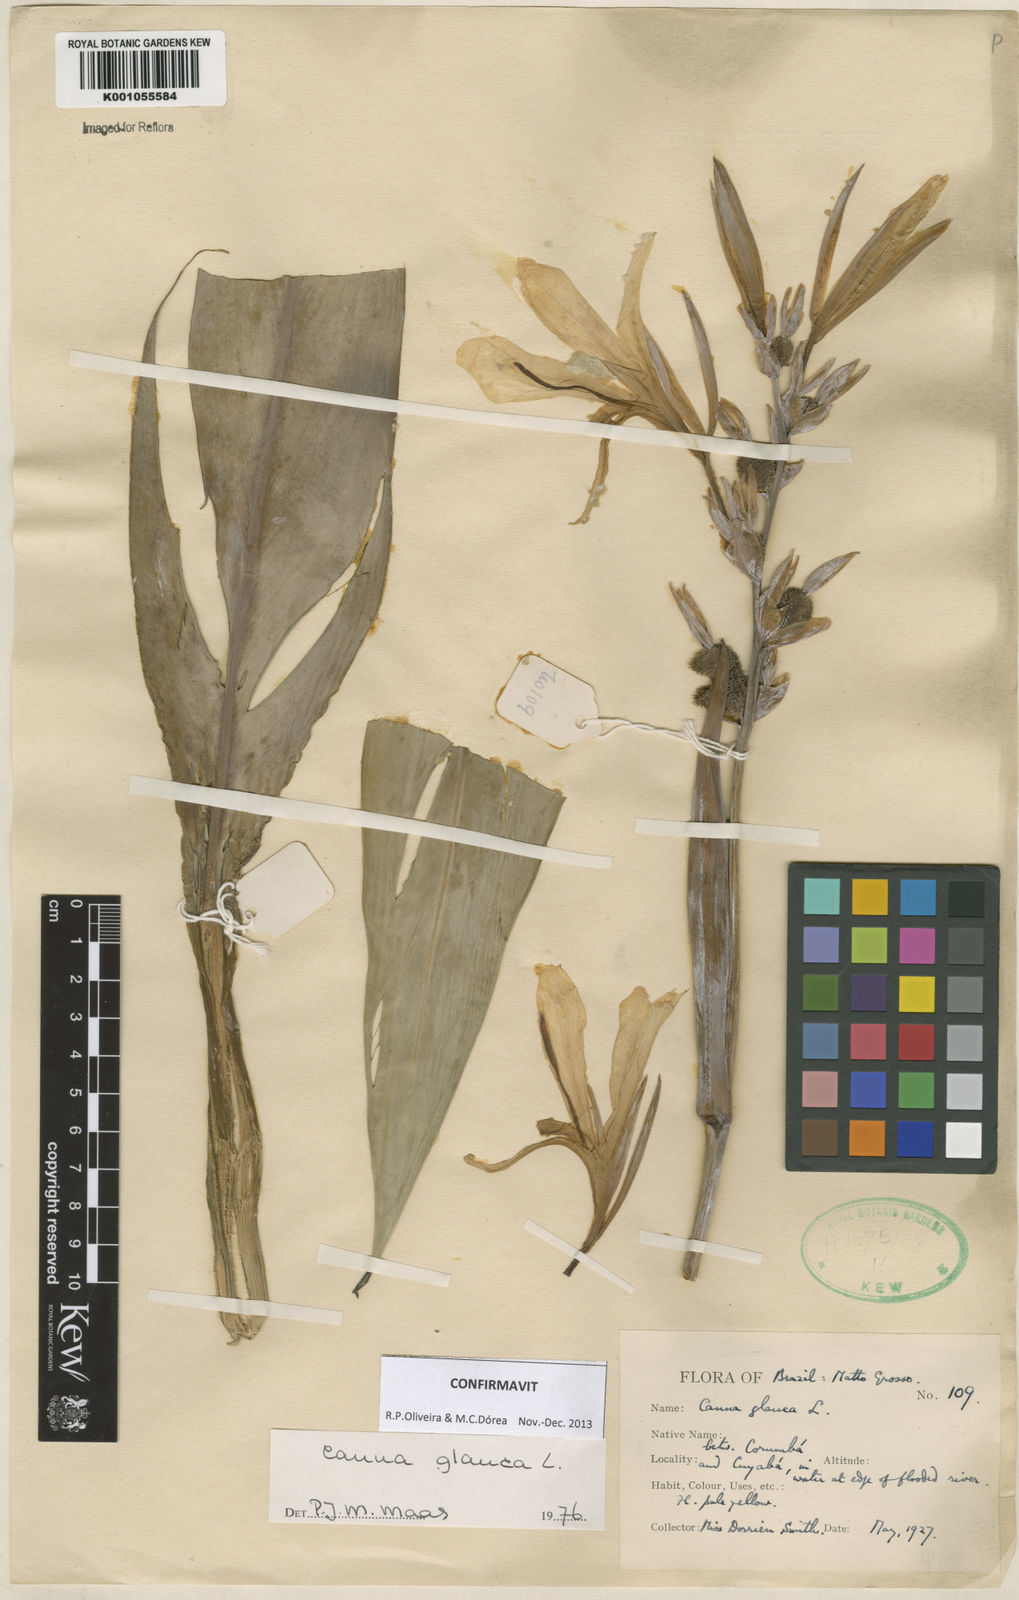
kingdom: Plantae
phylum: Tracheophyta
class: Liliopsida
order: Zingiberales
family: Cannaceae
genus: Canna
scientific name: Canna glauca
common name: Louisiana canna
